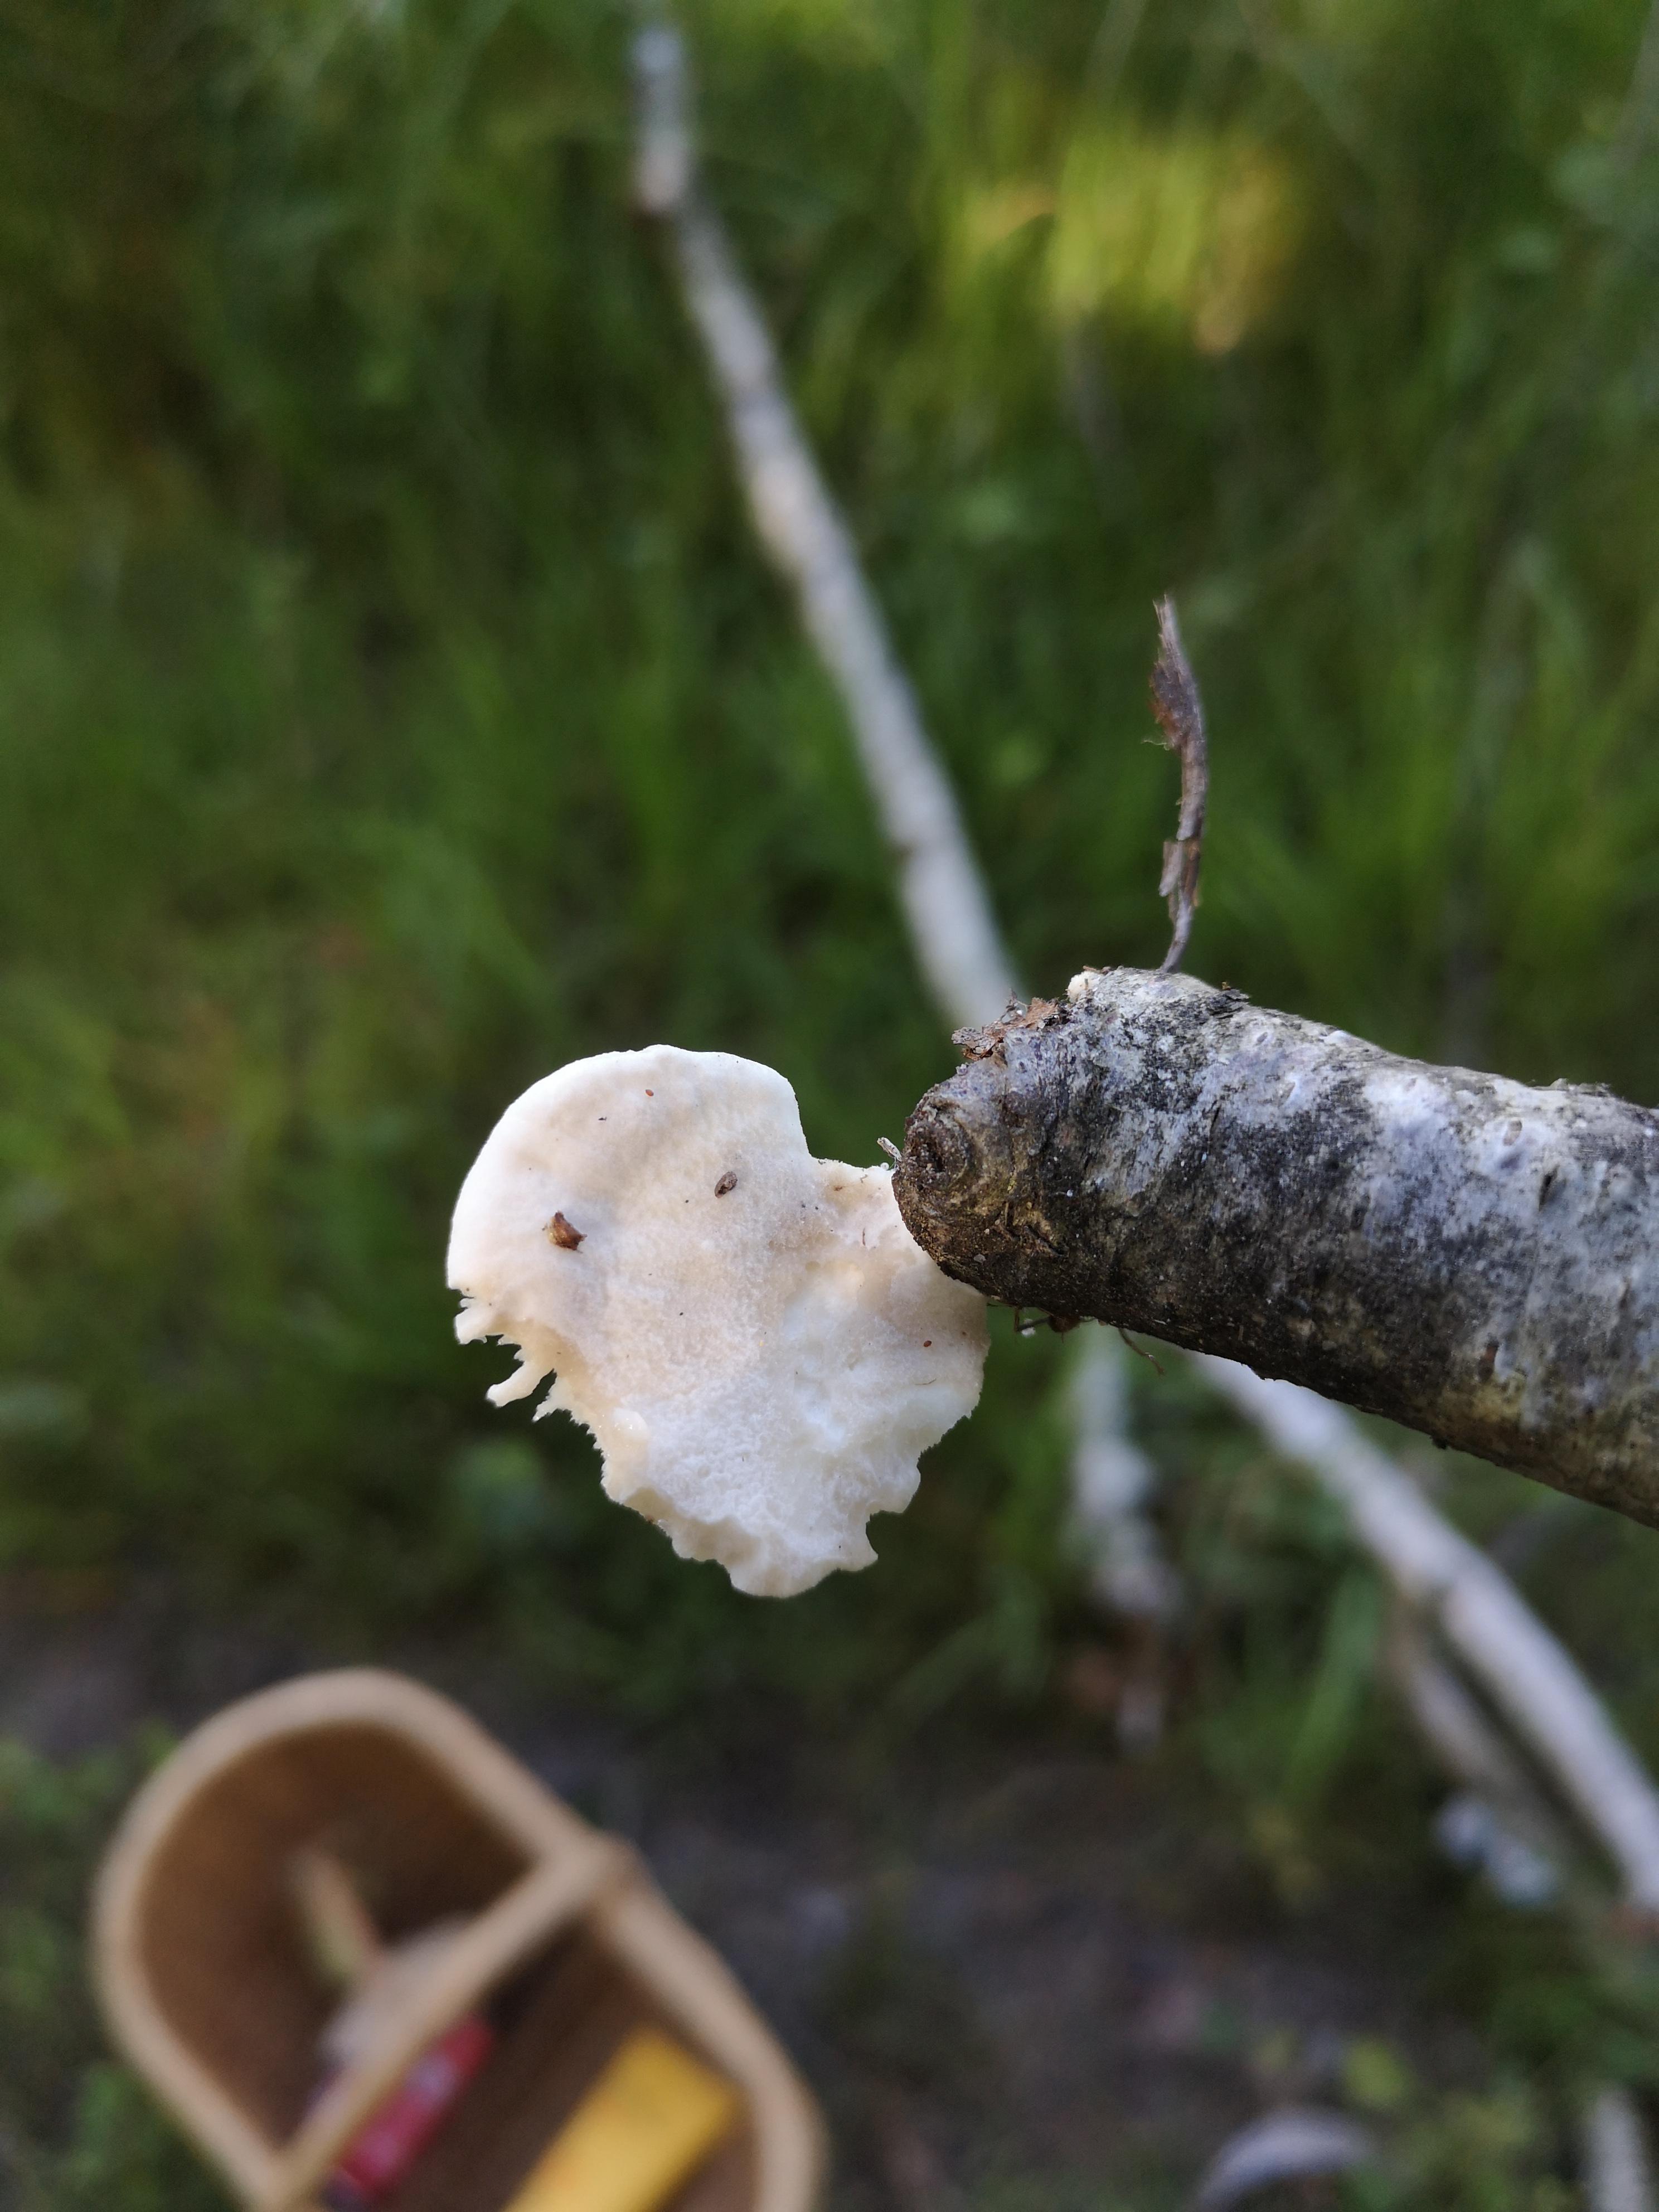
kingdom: Fungi
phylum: Basidiomycota
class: Agaricomycetes
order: Polyporales
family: Incrustoporiaceae
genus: Tyromyces
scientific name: Tyromyces lacteus
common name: mælkehvid kødporesvamp
